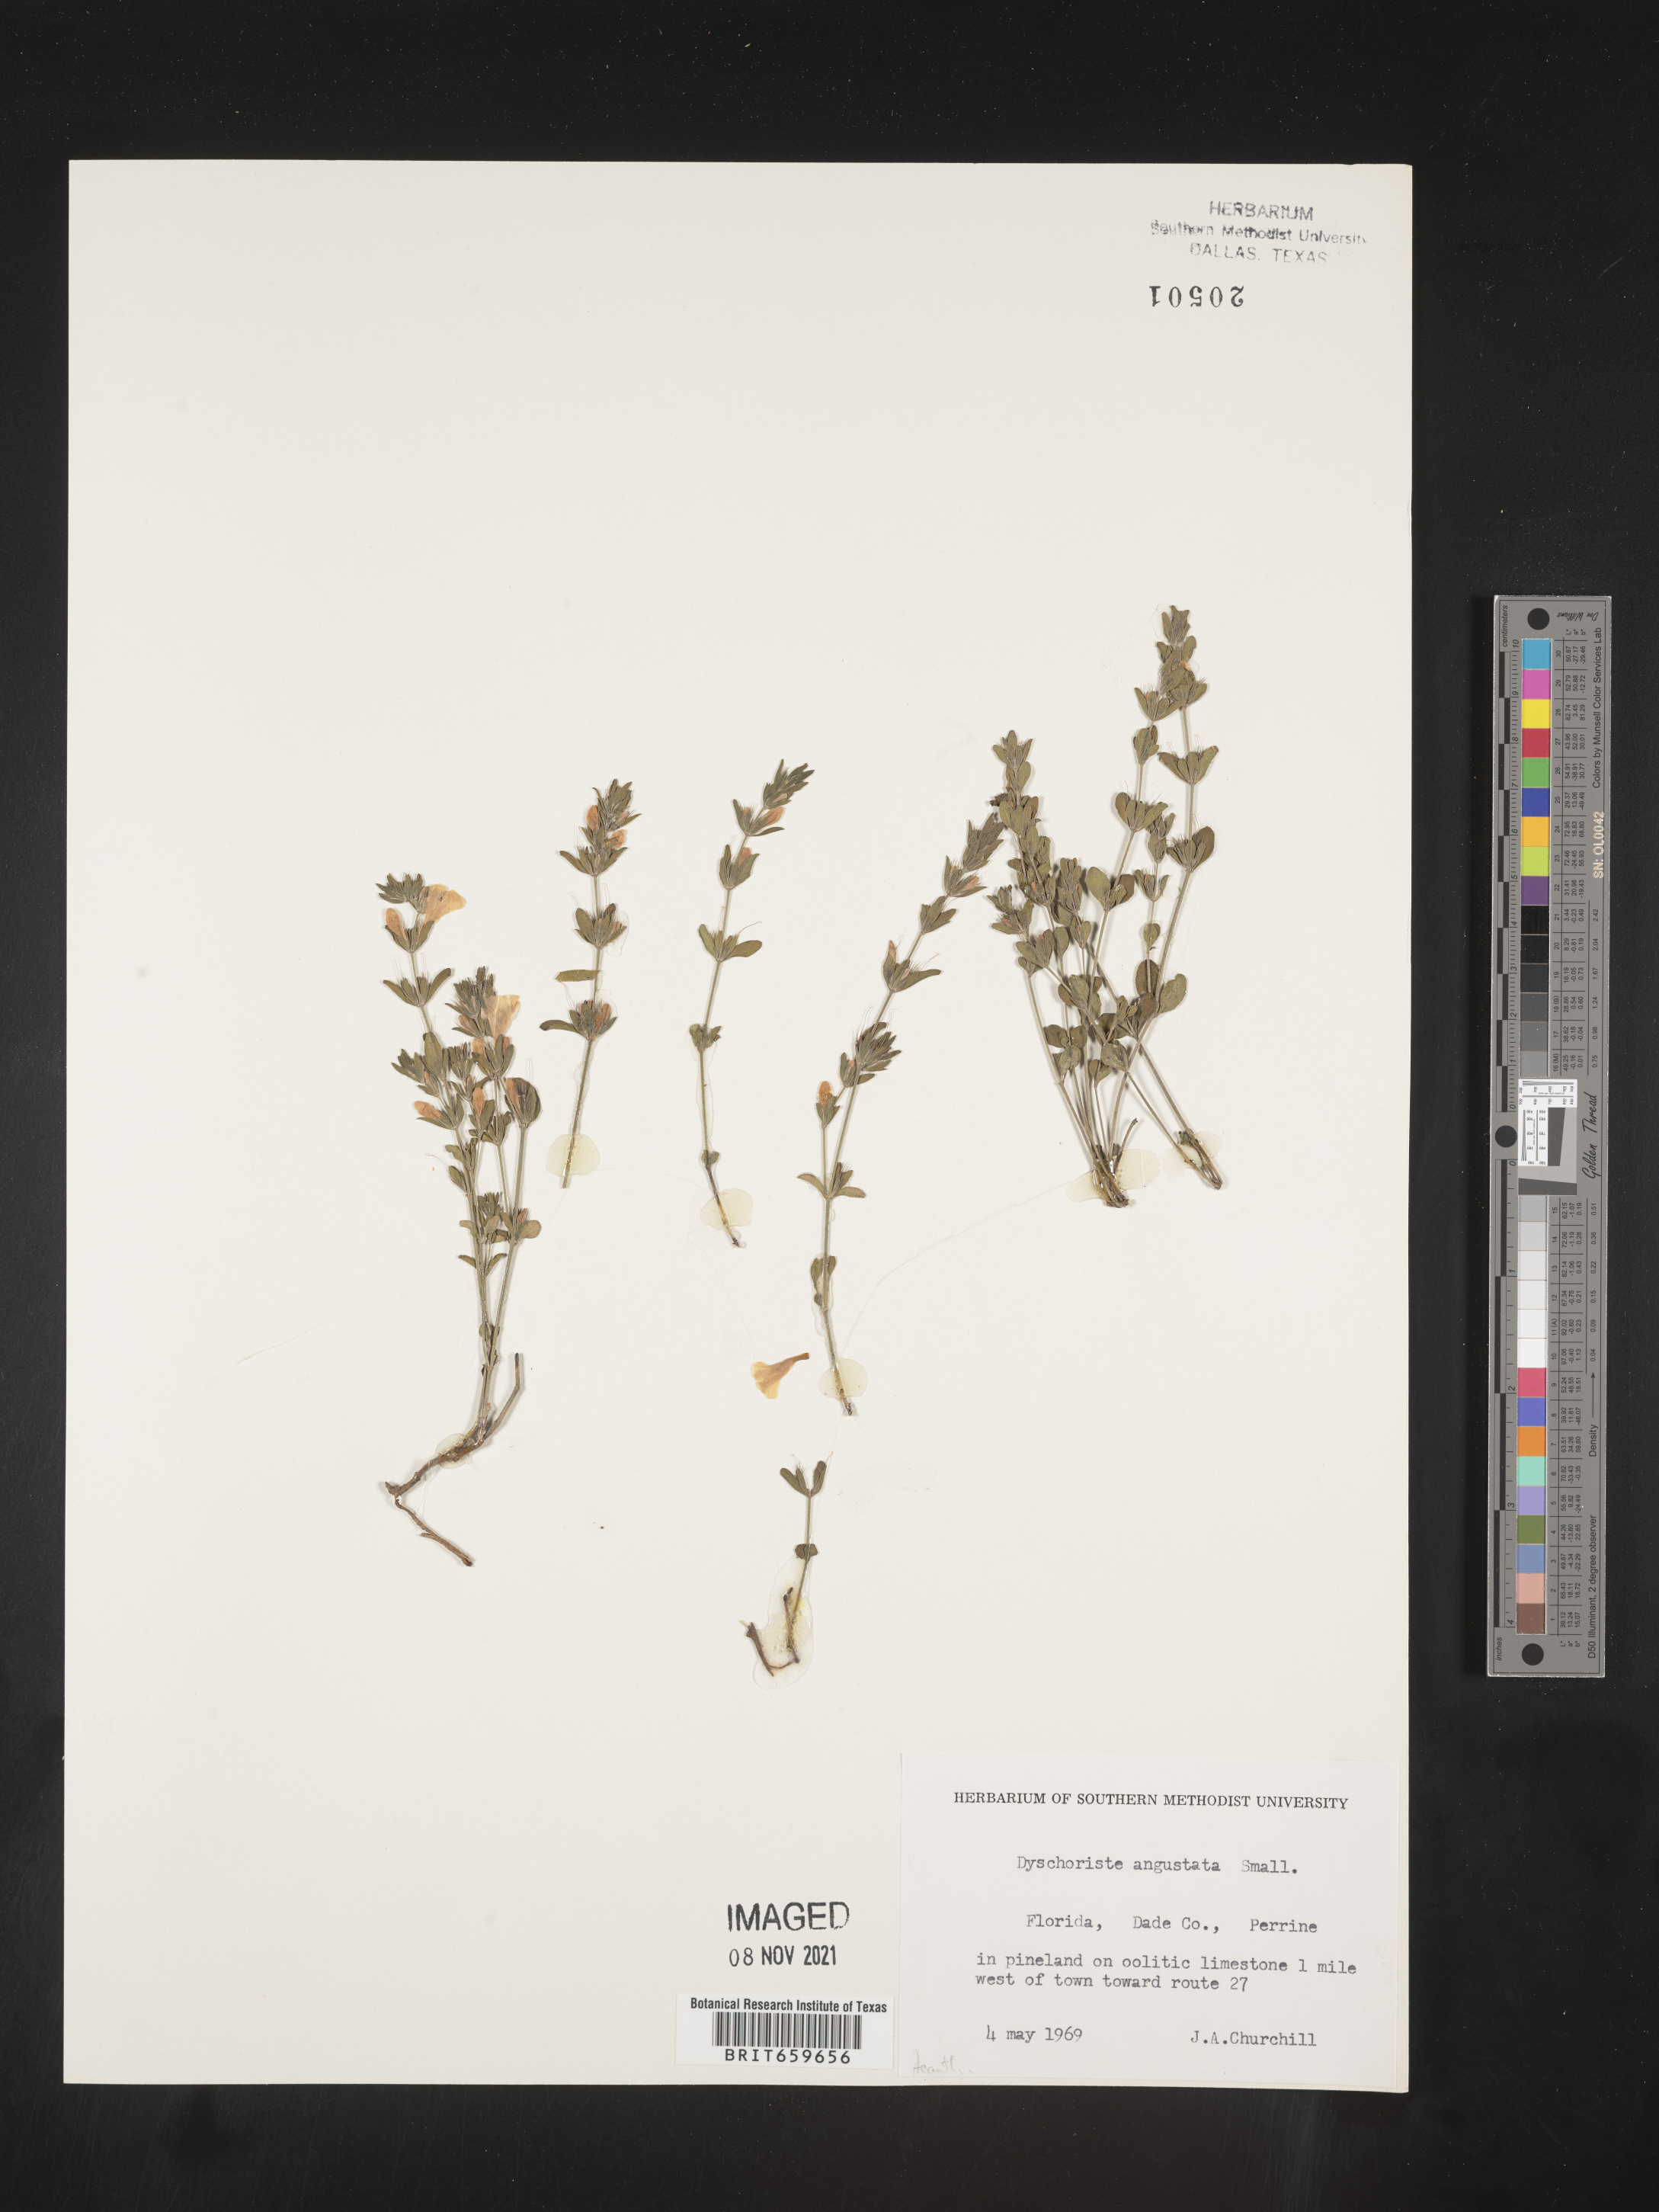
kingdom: Plantae
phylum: Tracheophyta
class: Magnoliopsida
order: Lamiales
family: Acanthaceae
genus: Dyschoriste
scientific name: Dyschoriste angusta
